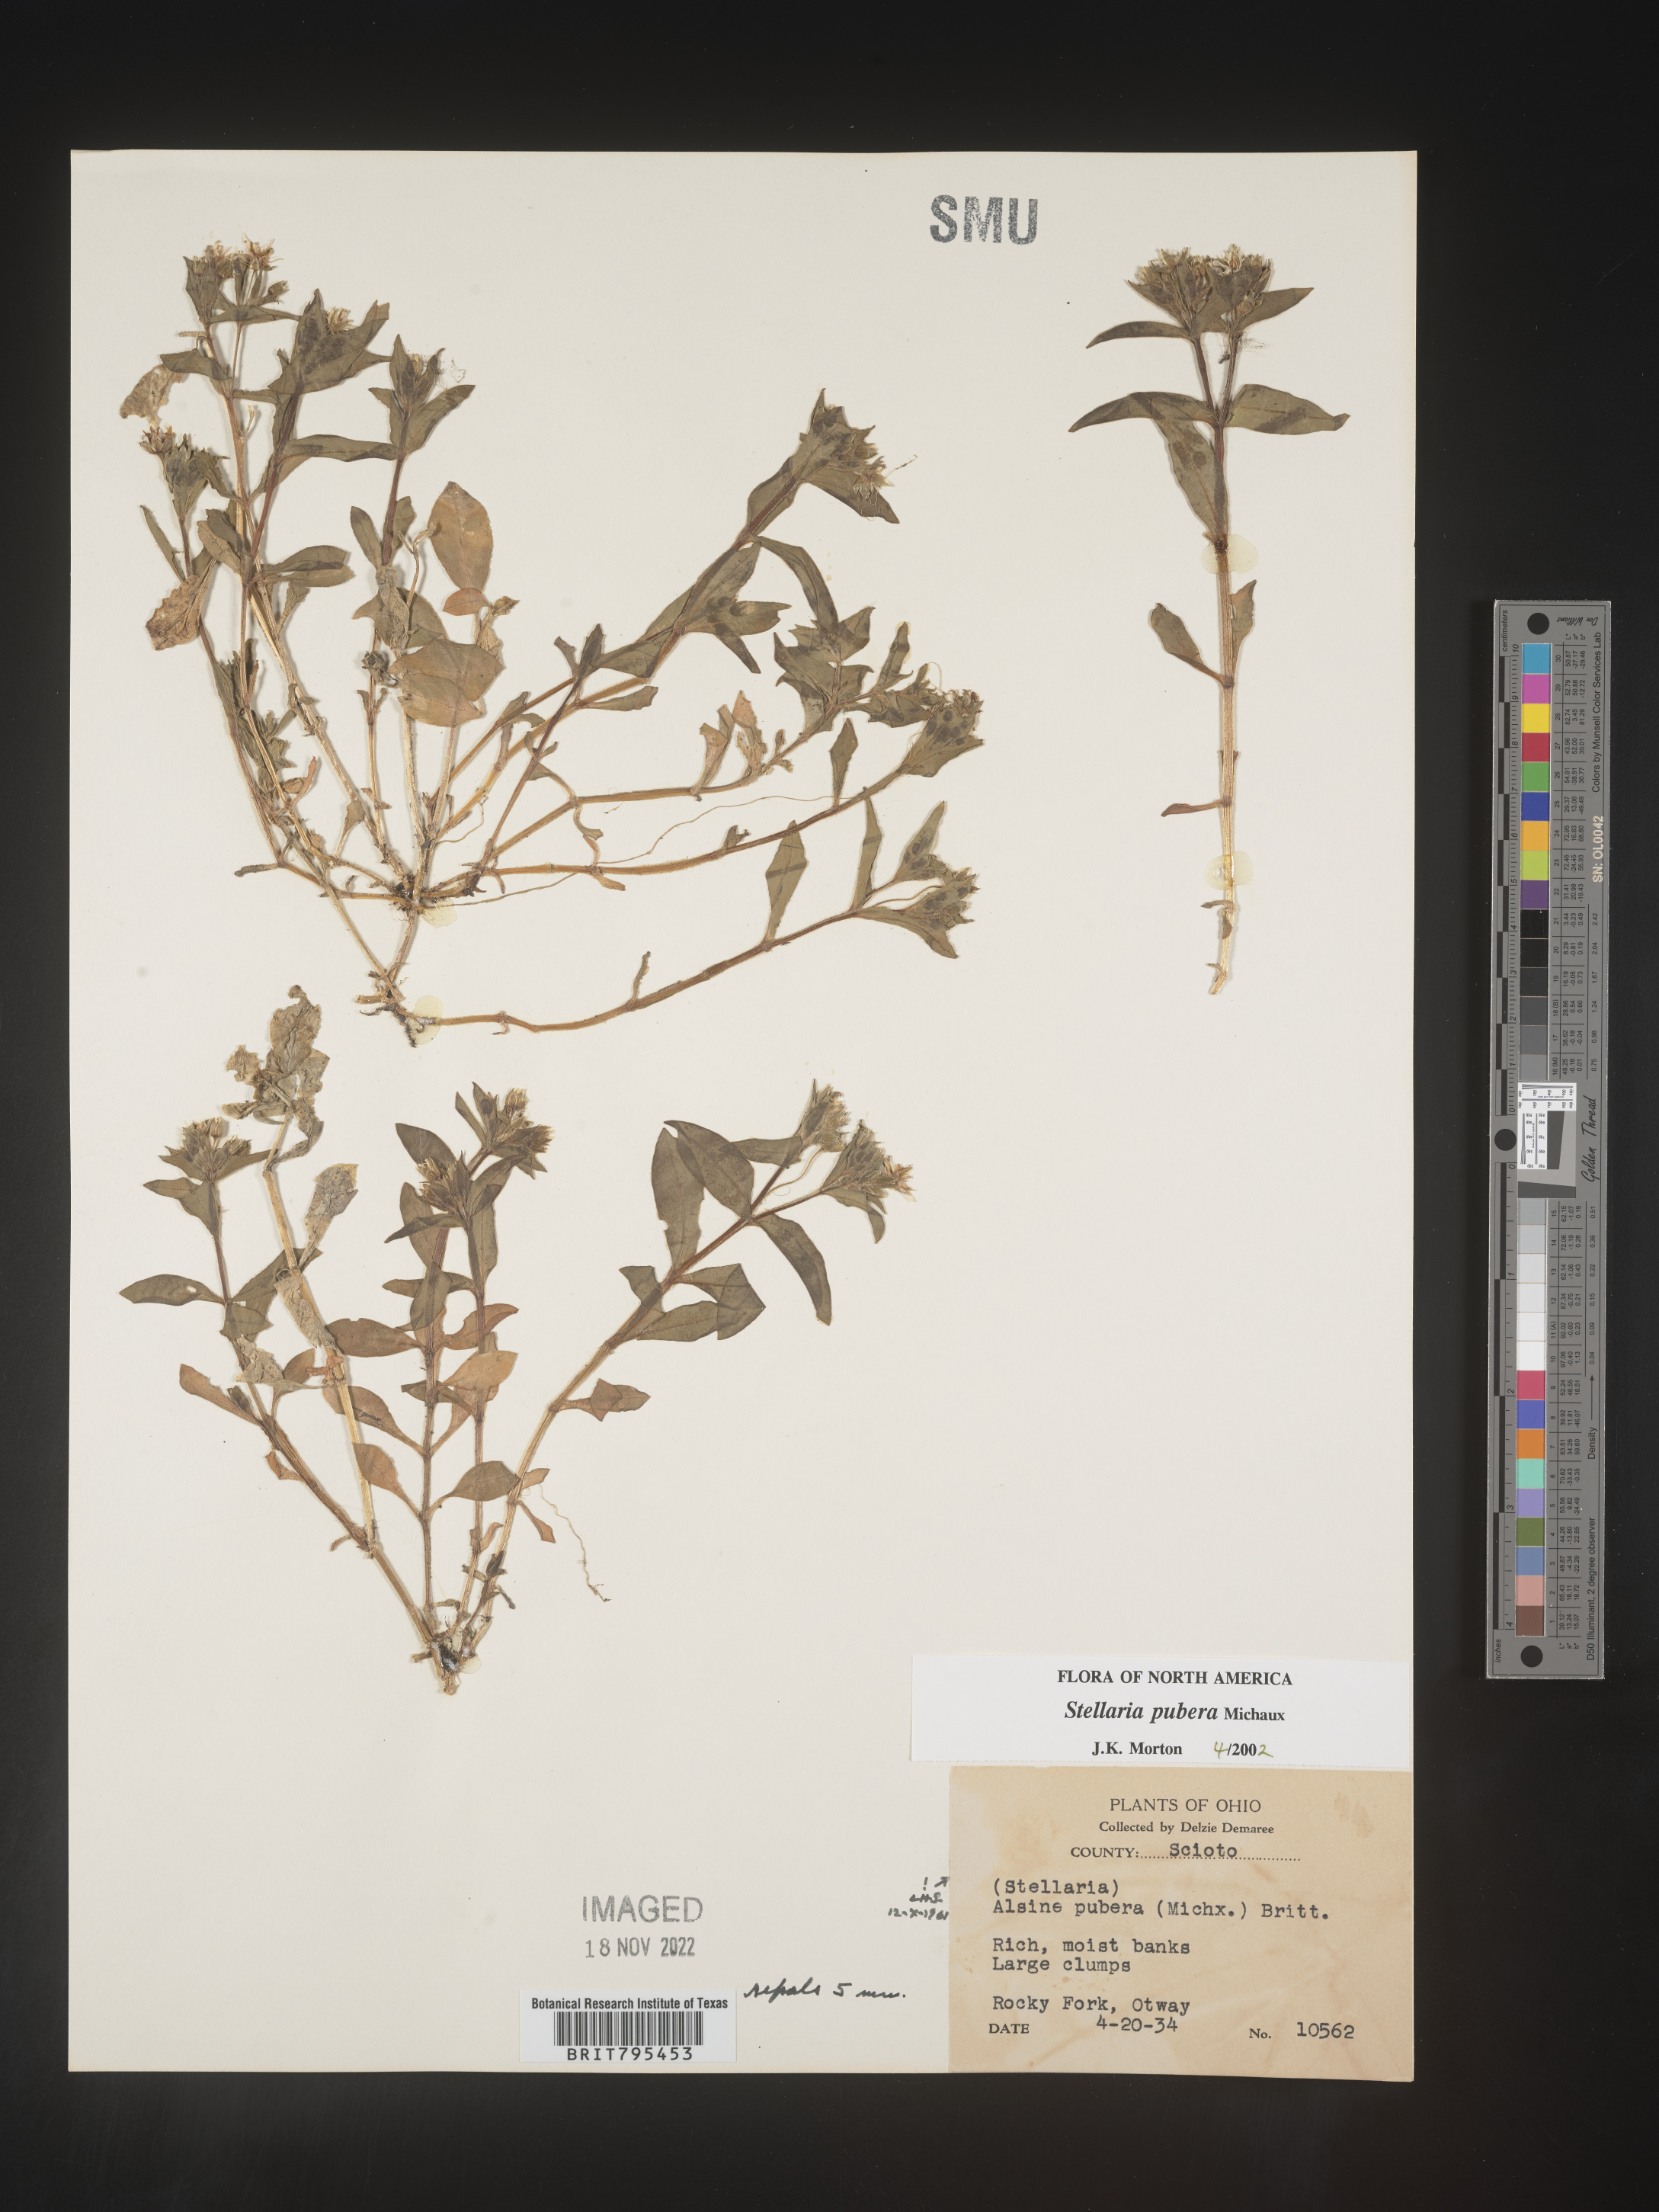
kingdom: Plantae
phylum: Tracheophyta
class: Magnoliopsida
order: Caryophyllales
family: Caryophyllaceae
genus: Stellaria
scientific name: Stellaria pubera
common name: Star chickweed
